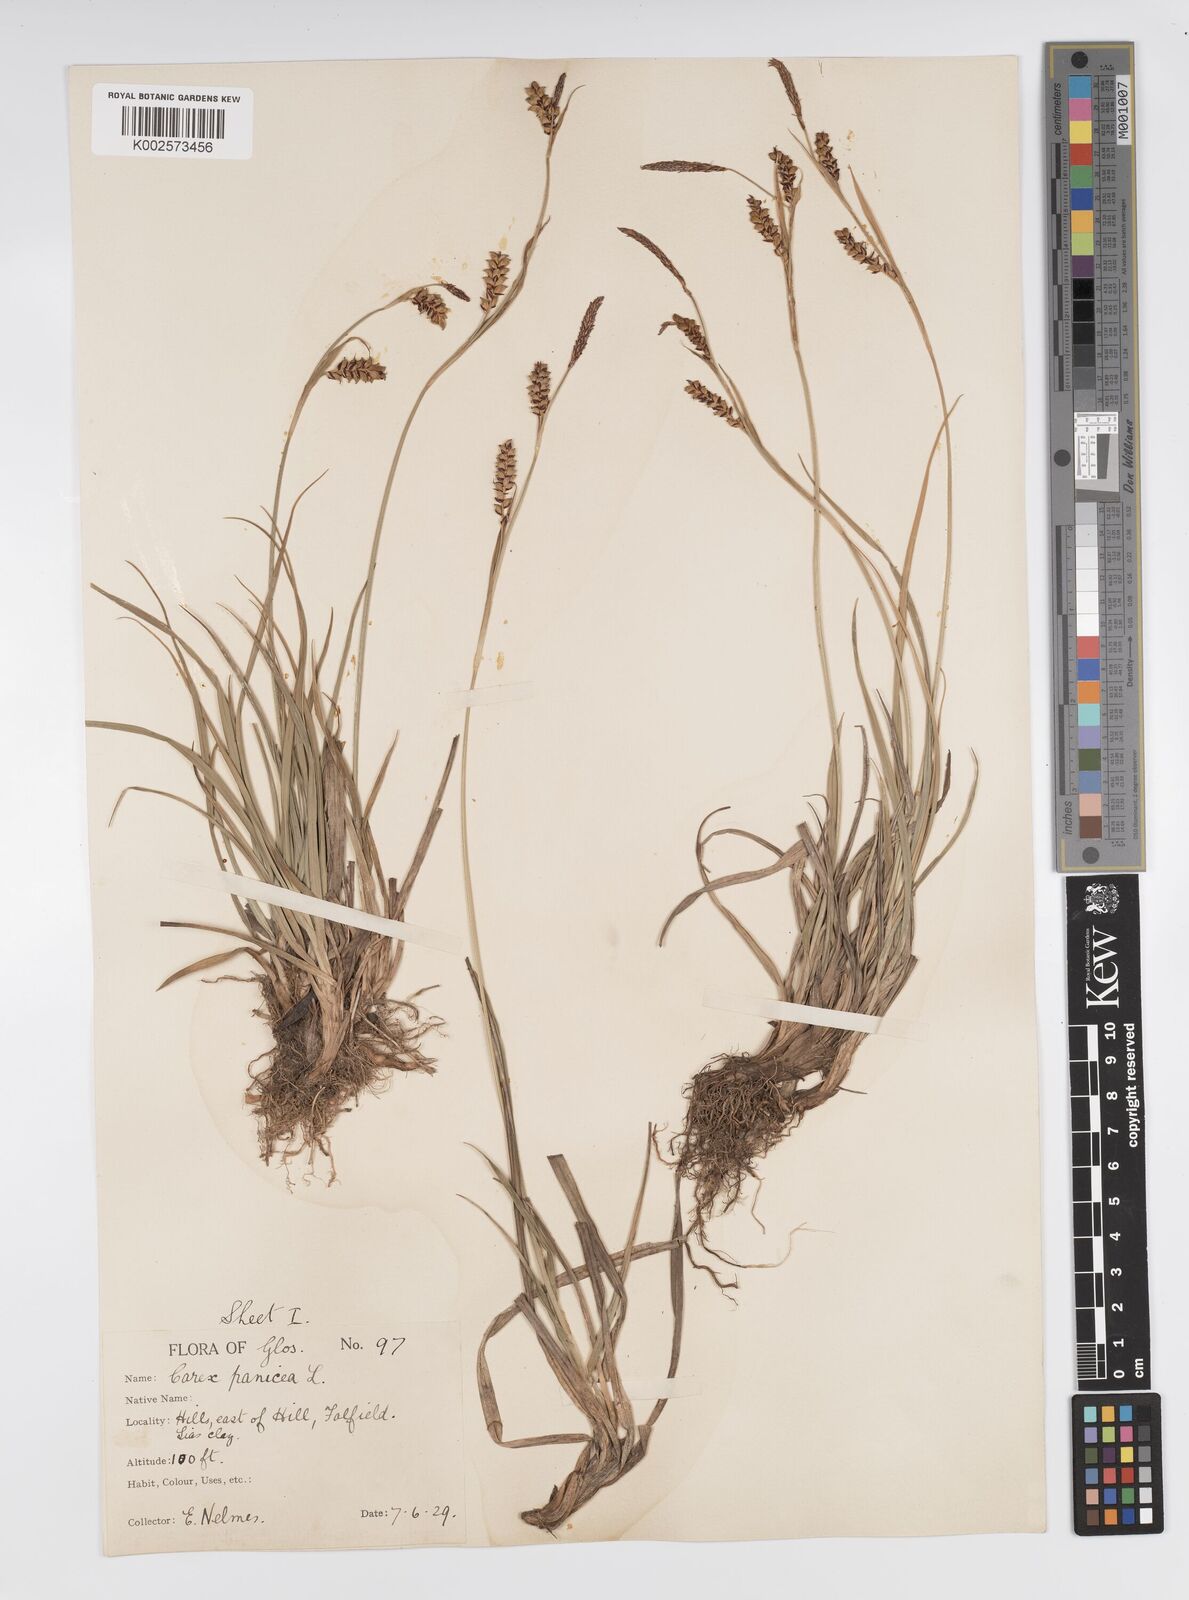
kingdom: Plantae
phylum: Tracheophyta
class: Liliopsida
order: Poales
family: Cyperaceae
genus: Carex
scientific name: Carex panicea
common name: Carnation sedge
